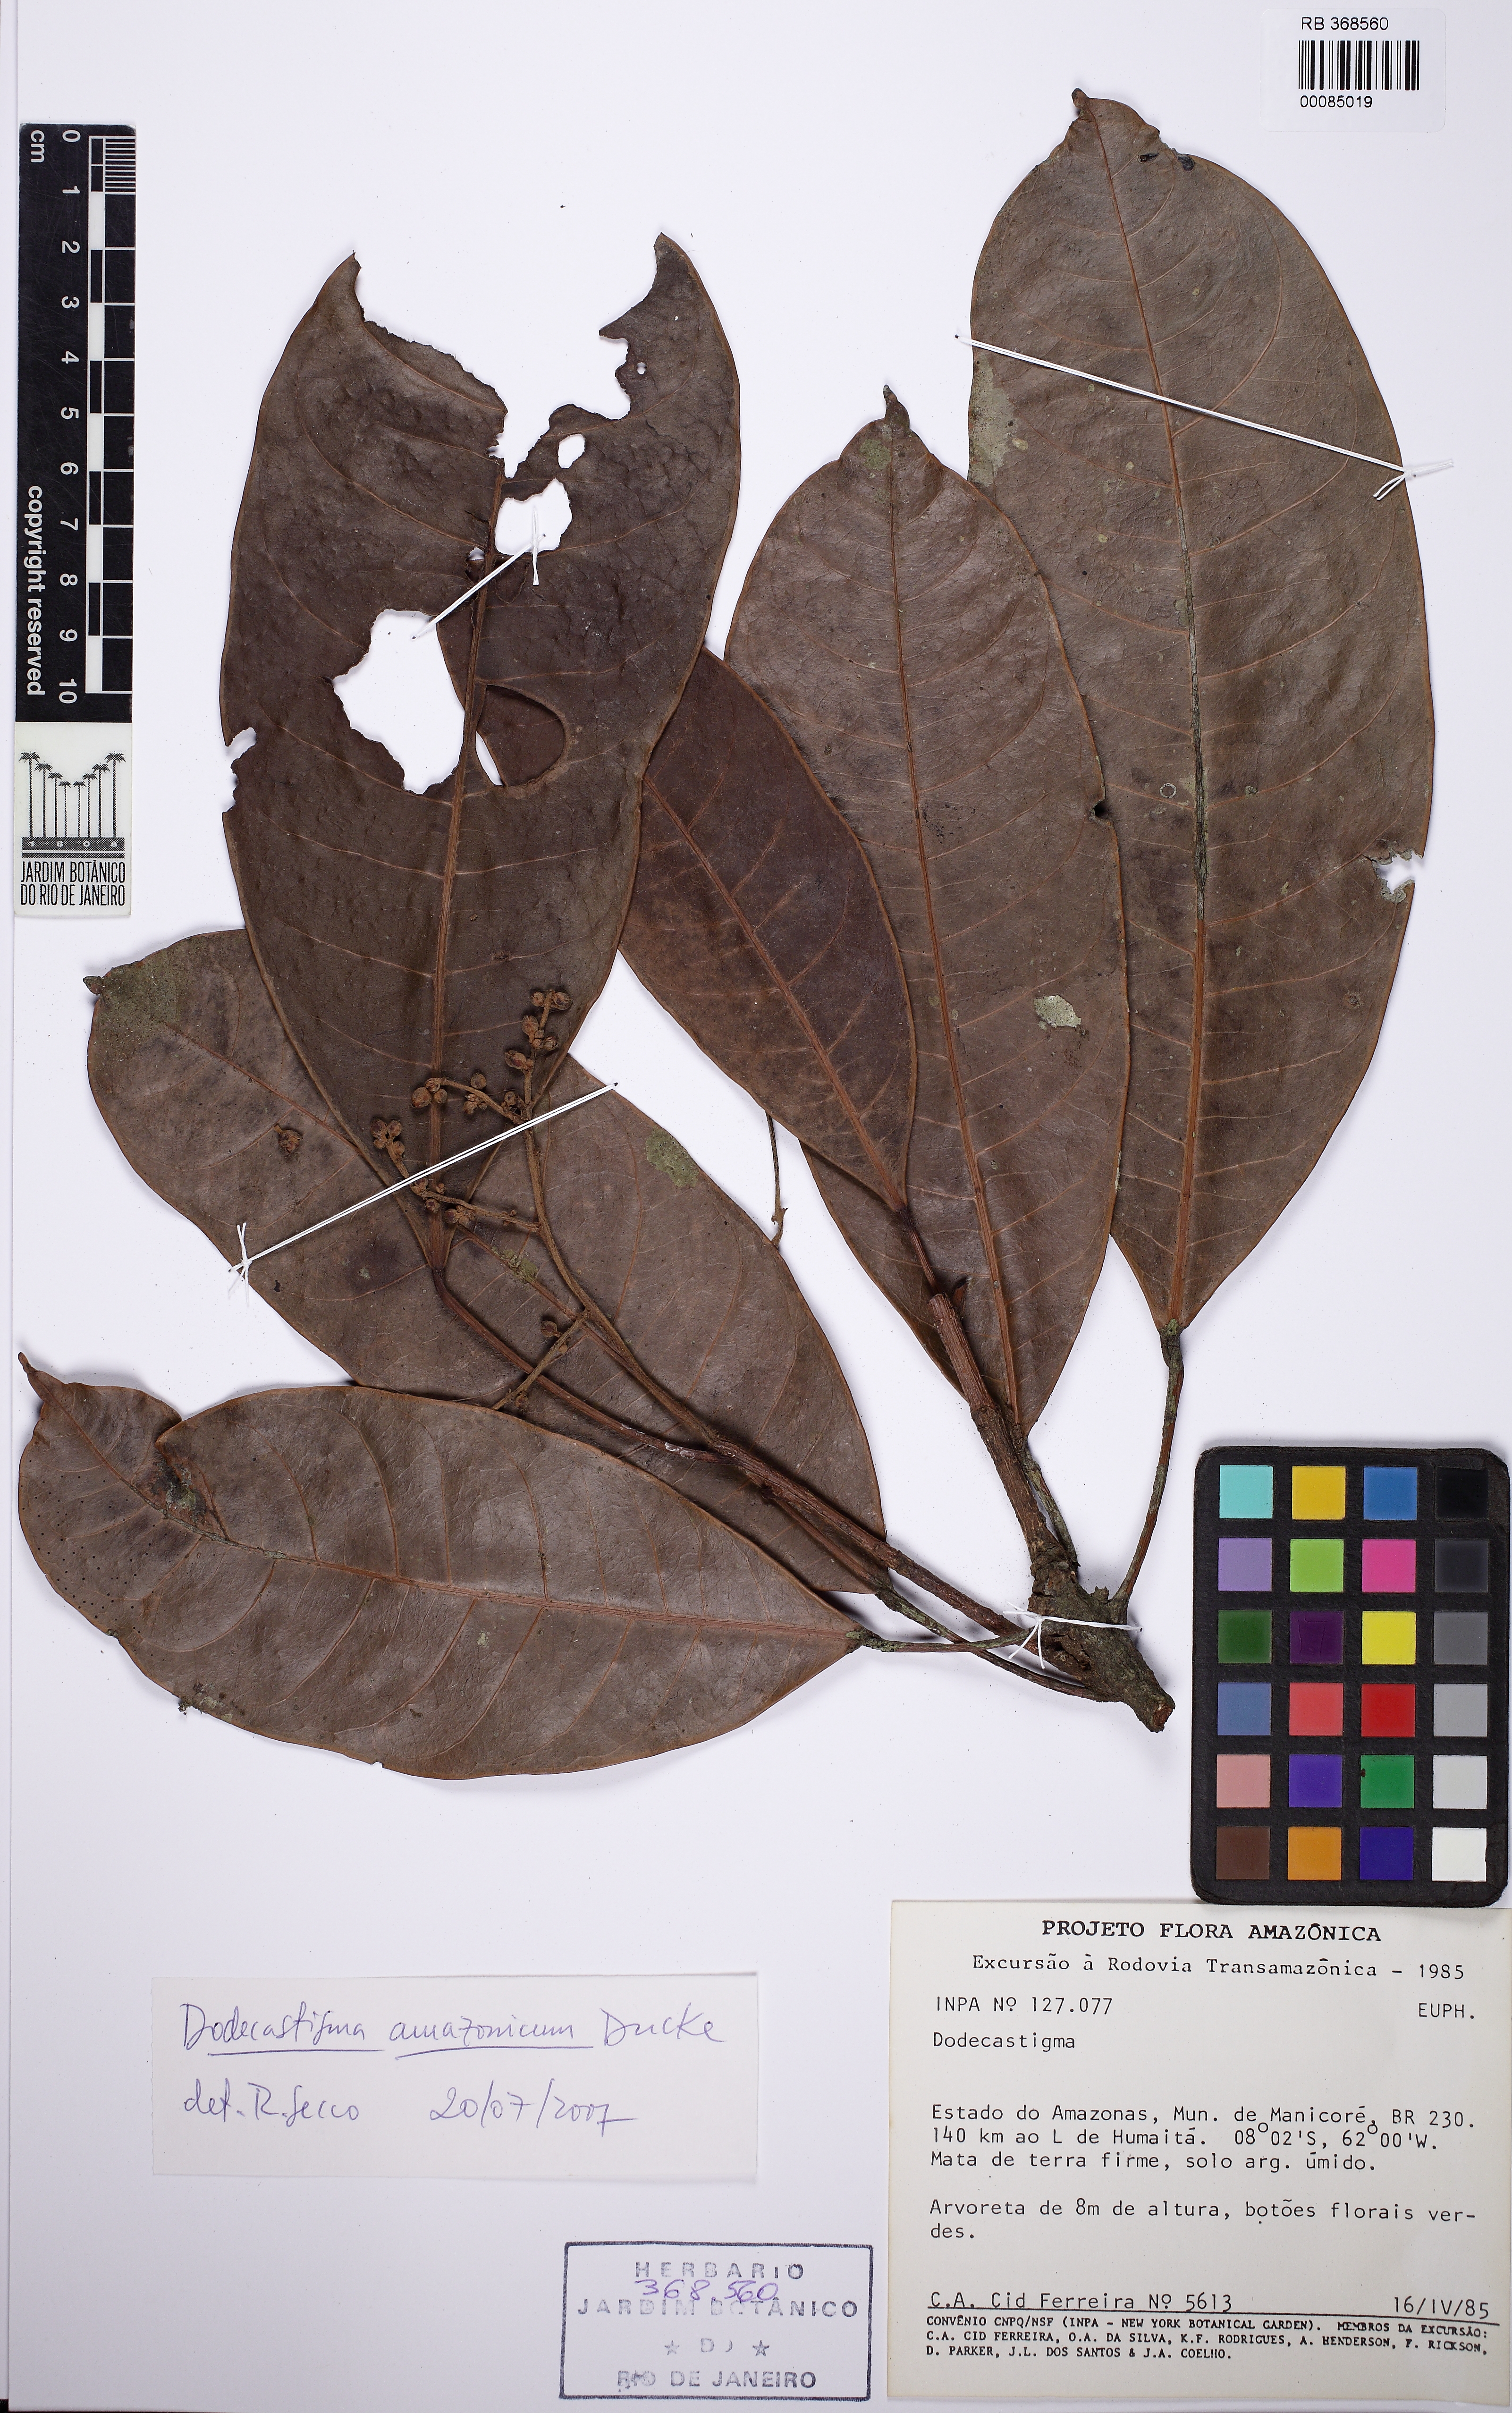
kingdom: Plantae
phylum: Tracheophyta
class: Magnoliopsida
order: Malpighiales
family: Euphorbiaceae
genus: Dodecastigma
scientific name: Dodecastigma amazonicum
